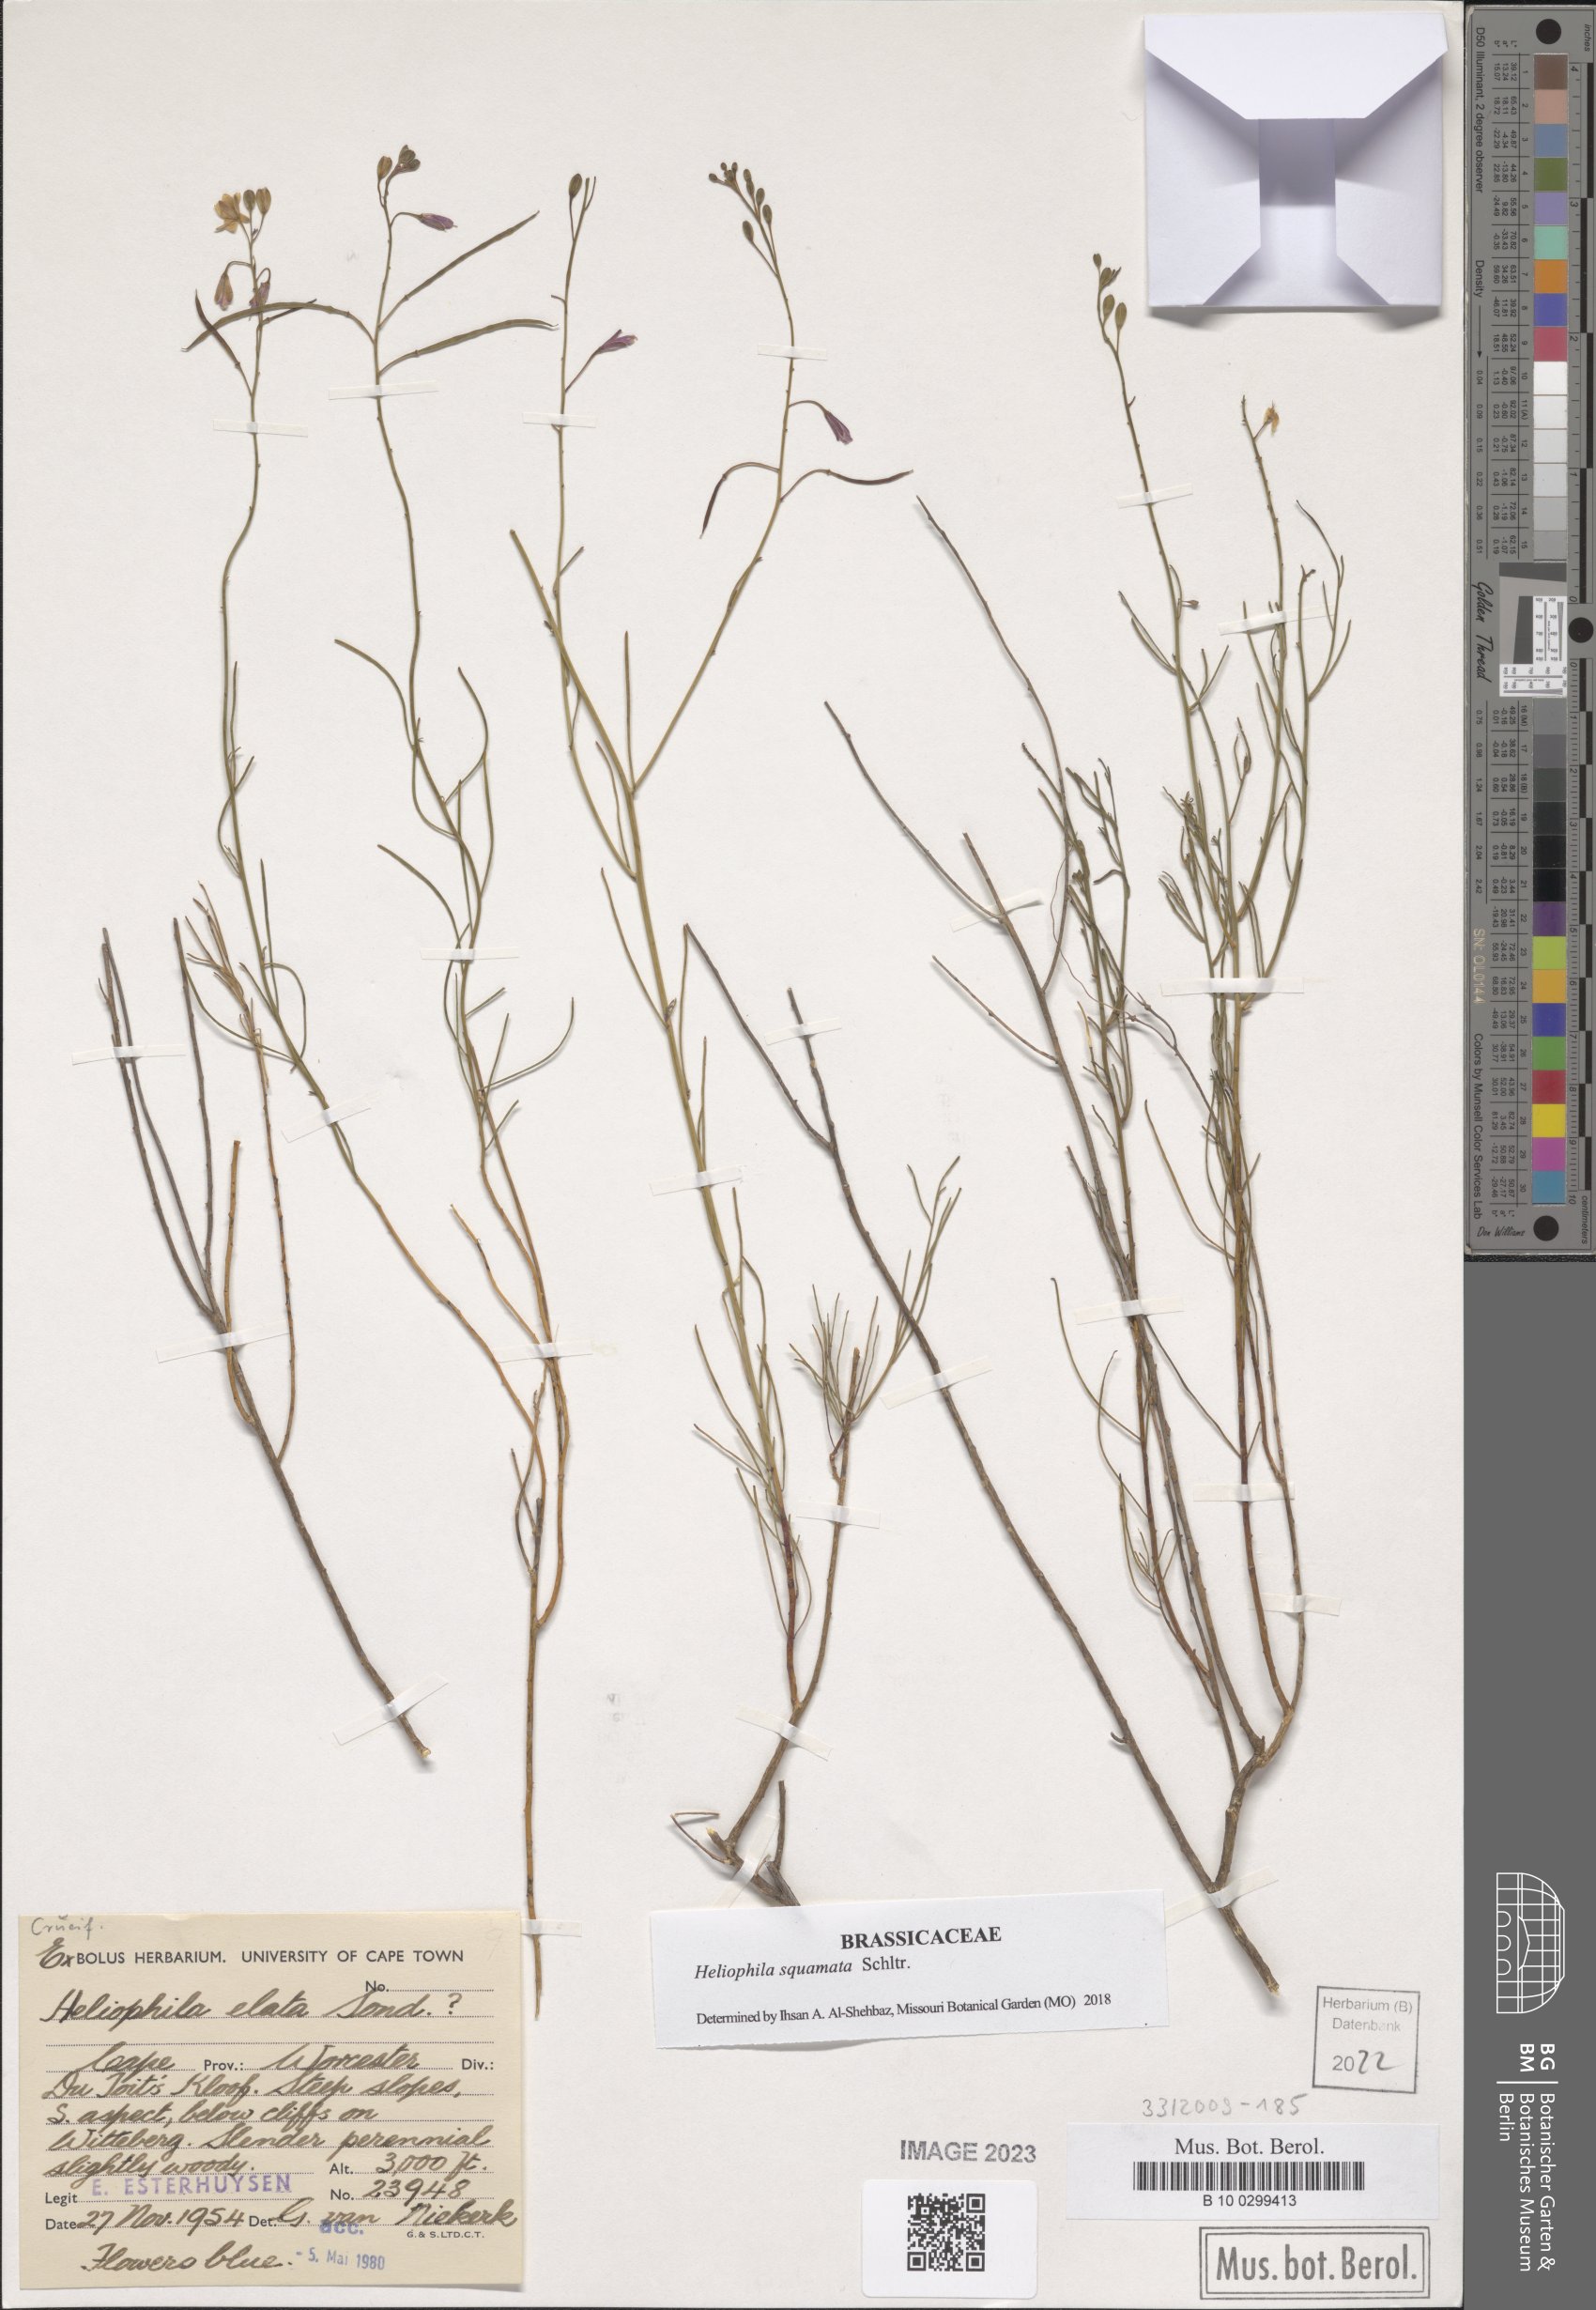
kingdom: Plantae
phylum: Tracheophyta
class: Magnoliopsida
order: Brassicales
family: Brassicaceae
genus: Heliophila
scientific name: Heliophila cornuta
